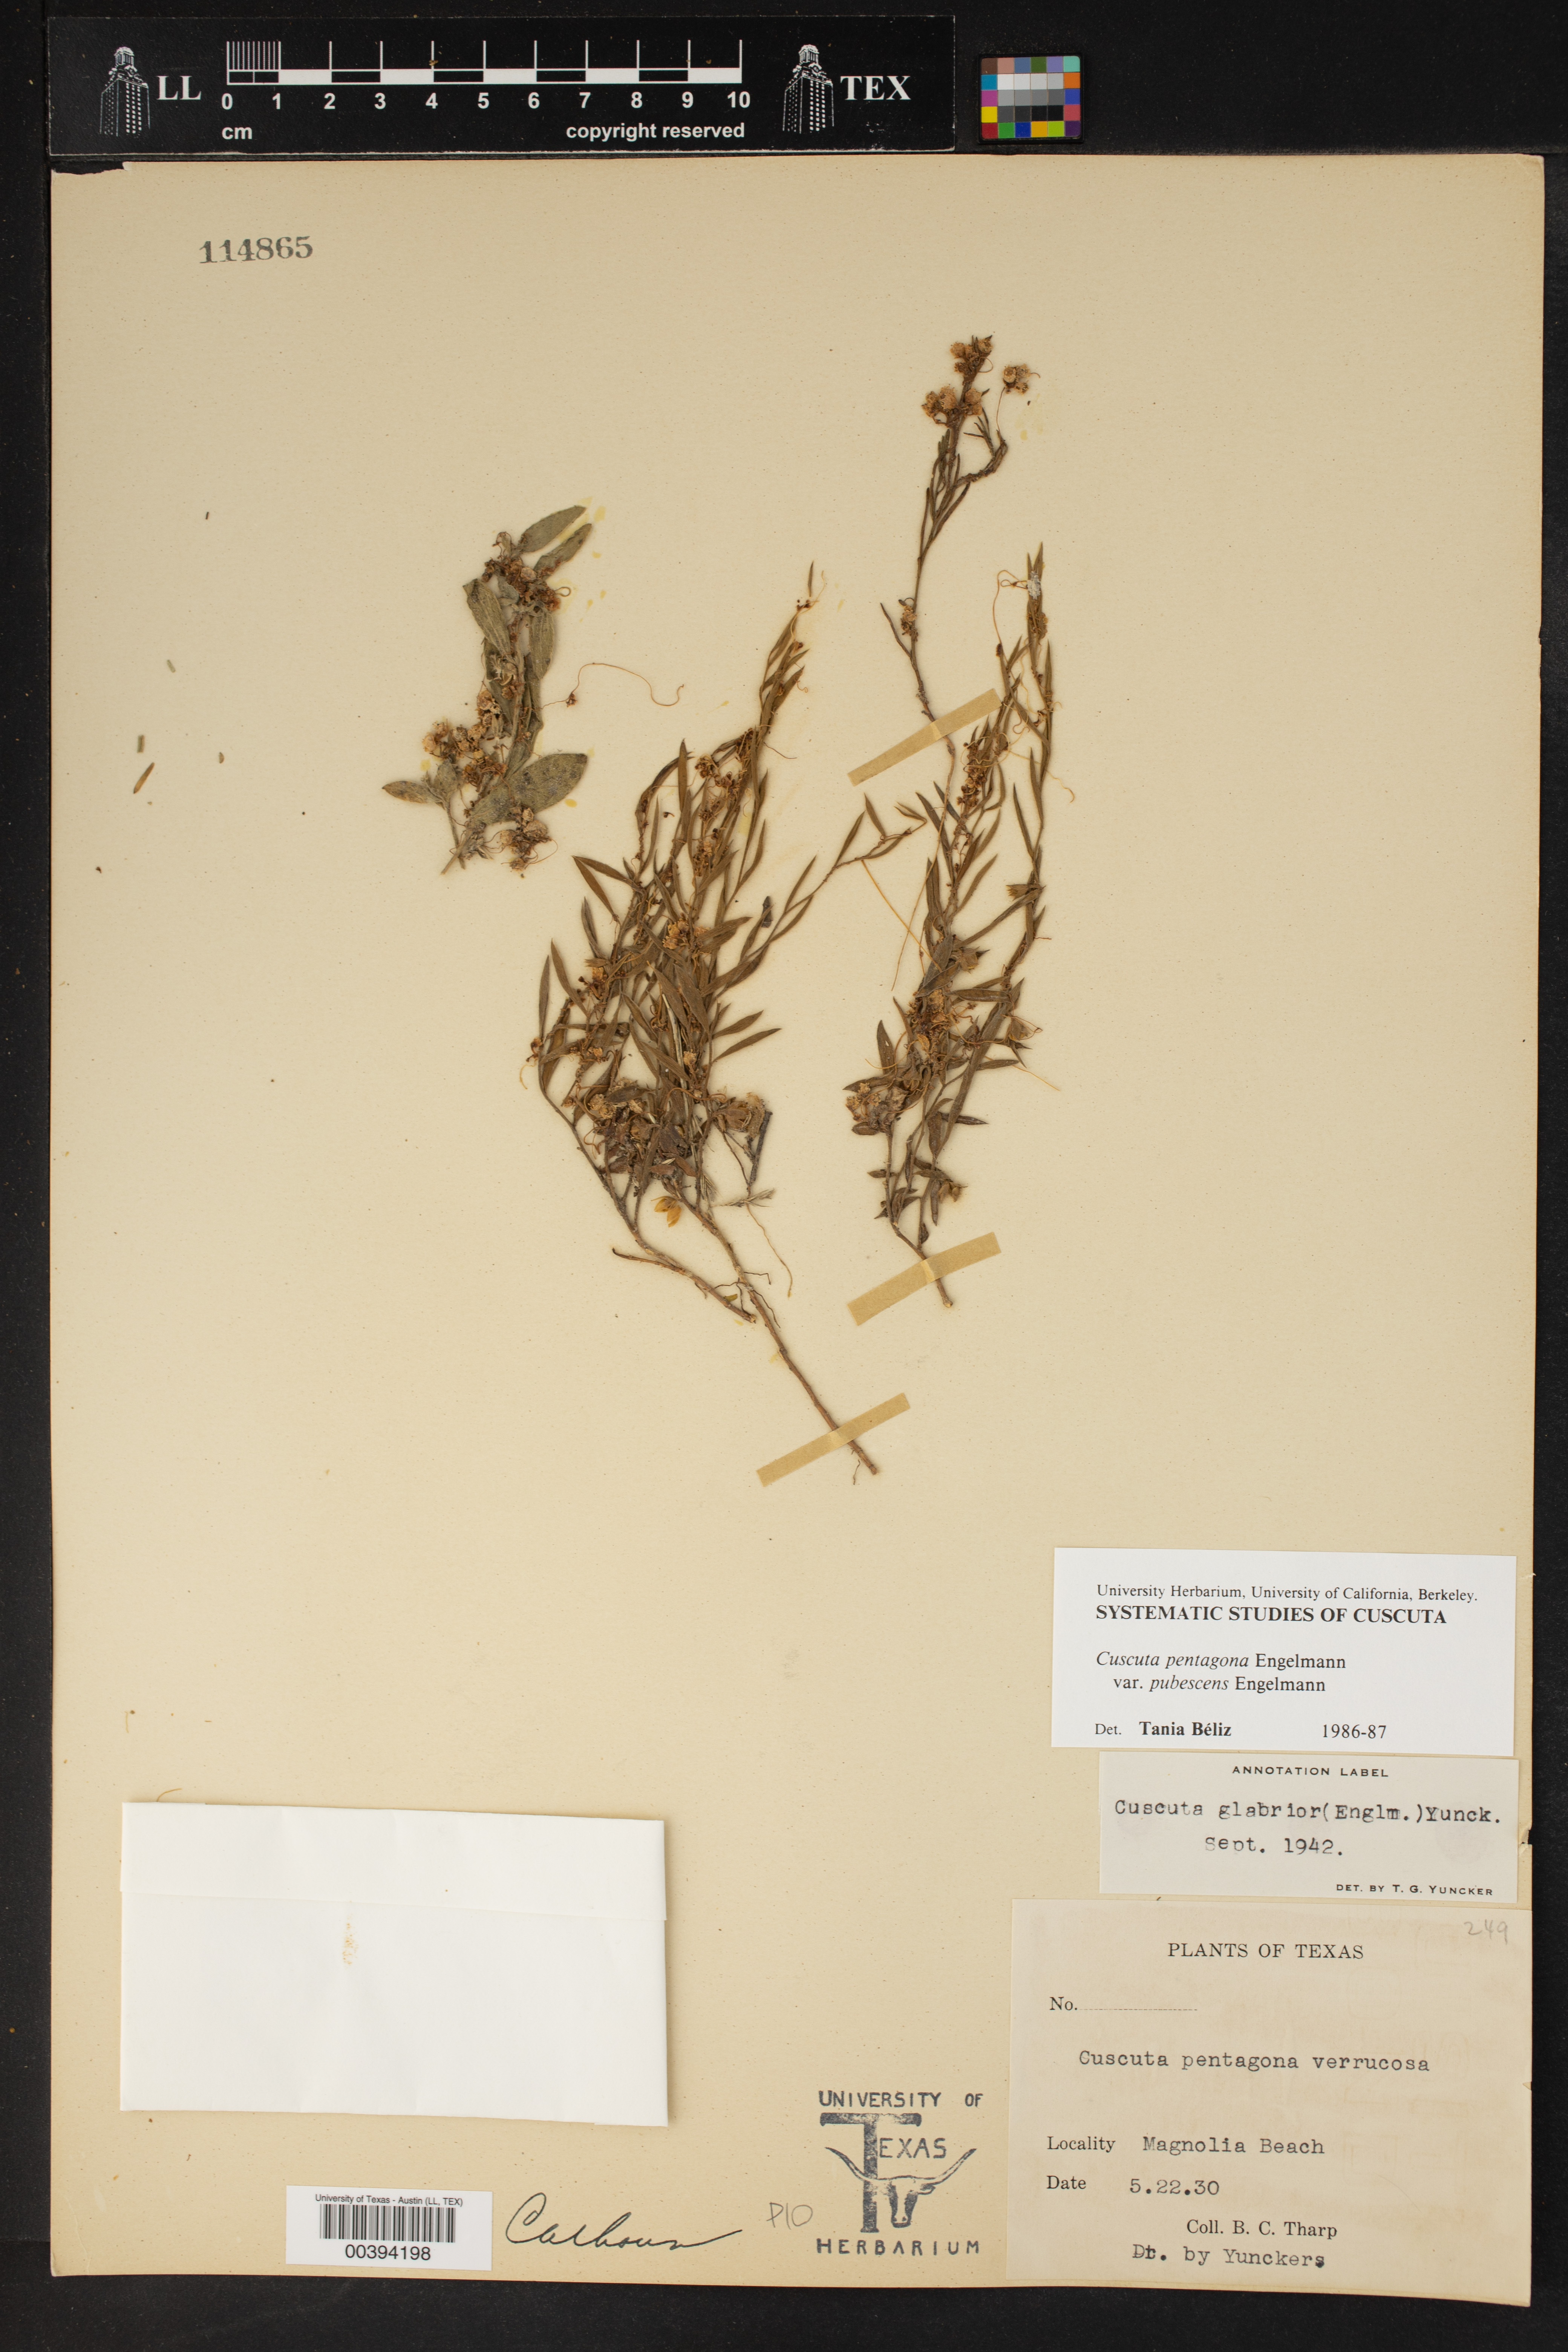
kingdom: Plantae
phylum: Tracheophyta
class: Magnoliopsida
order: Solanales
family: Convolvulaceae
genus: Cuscuta
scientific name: Cuscuta glabrior
